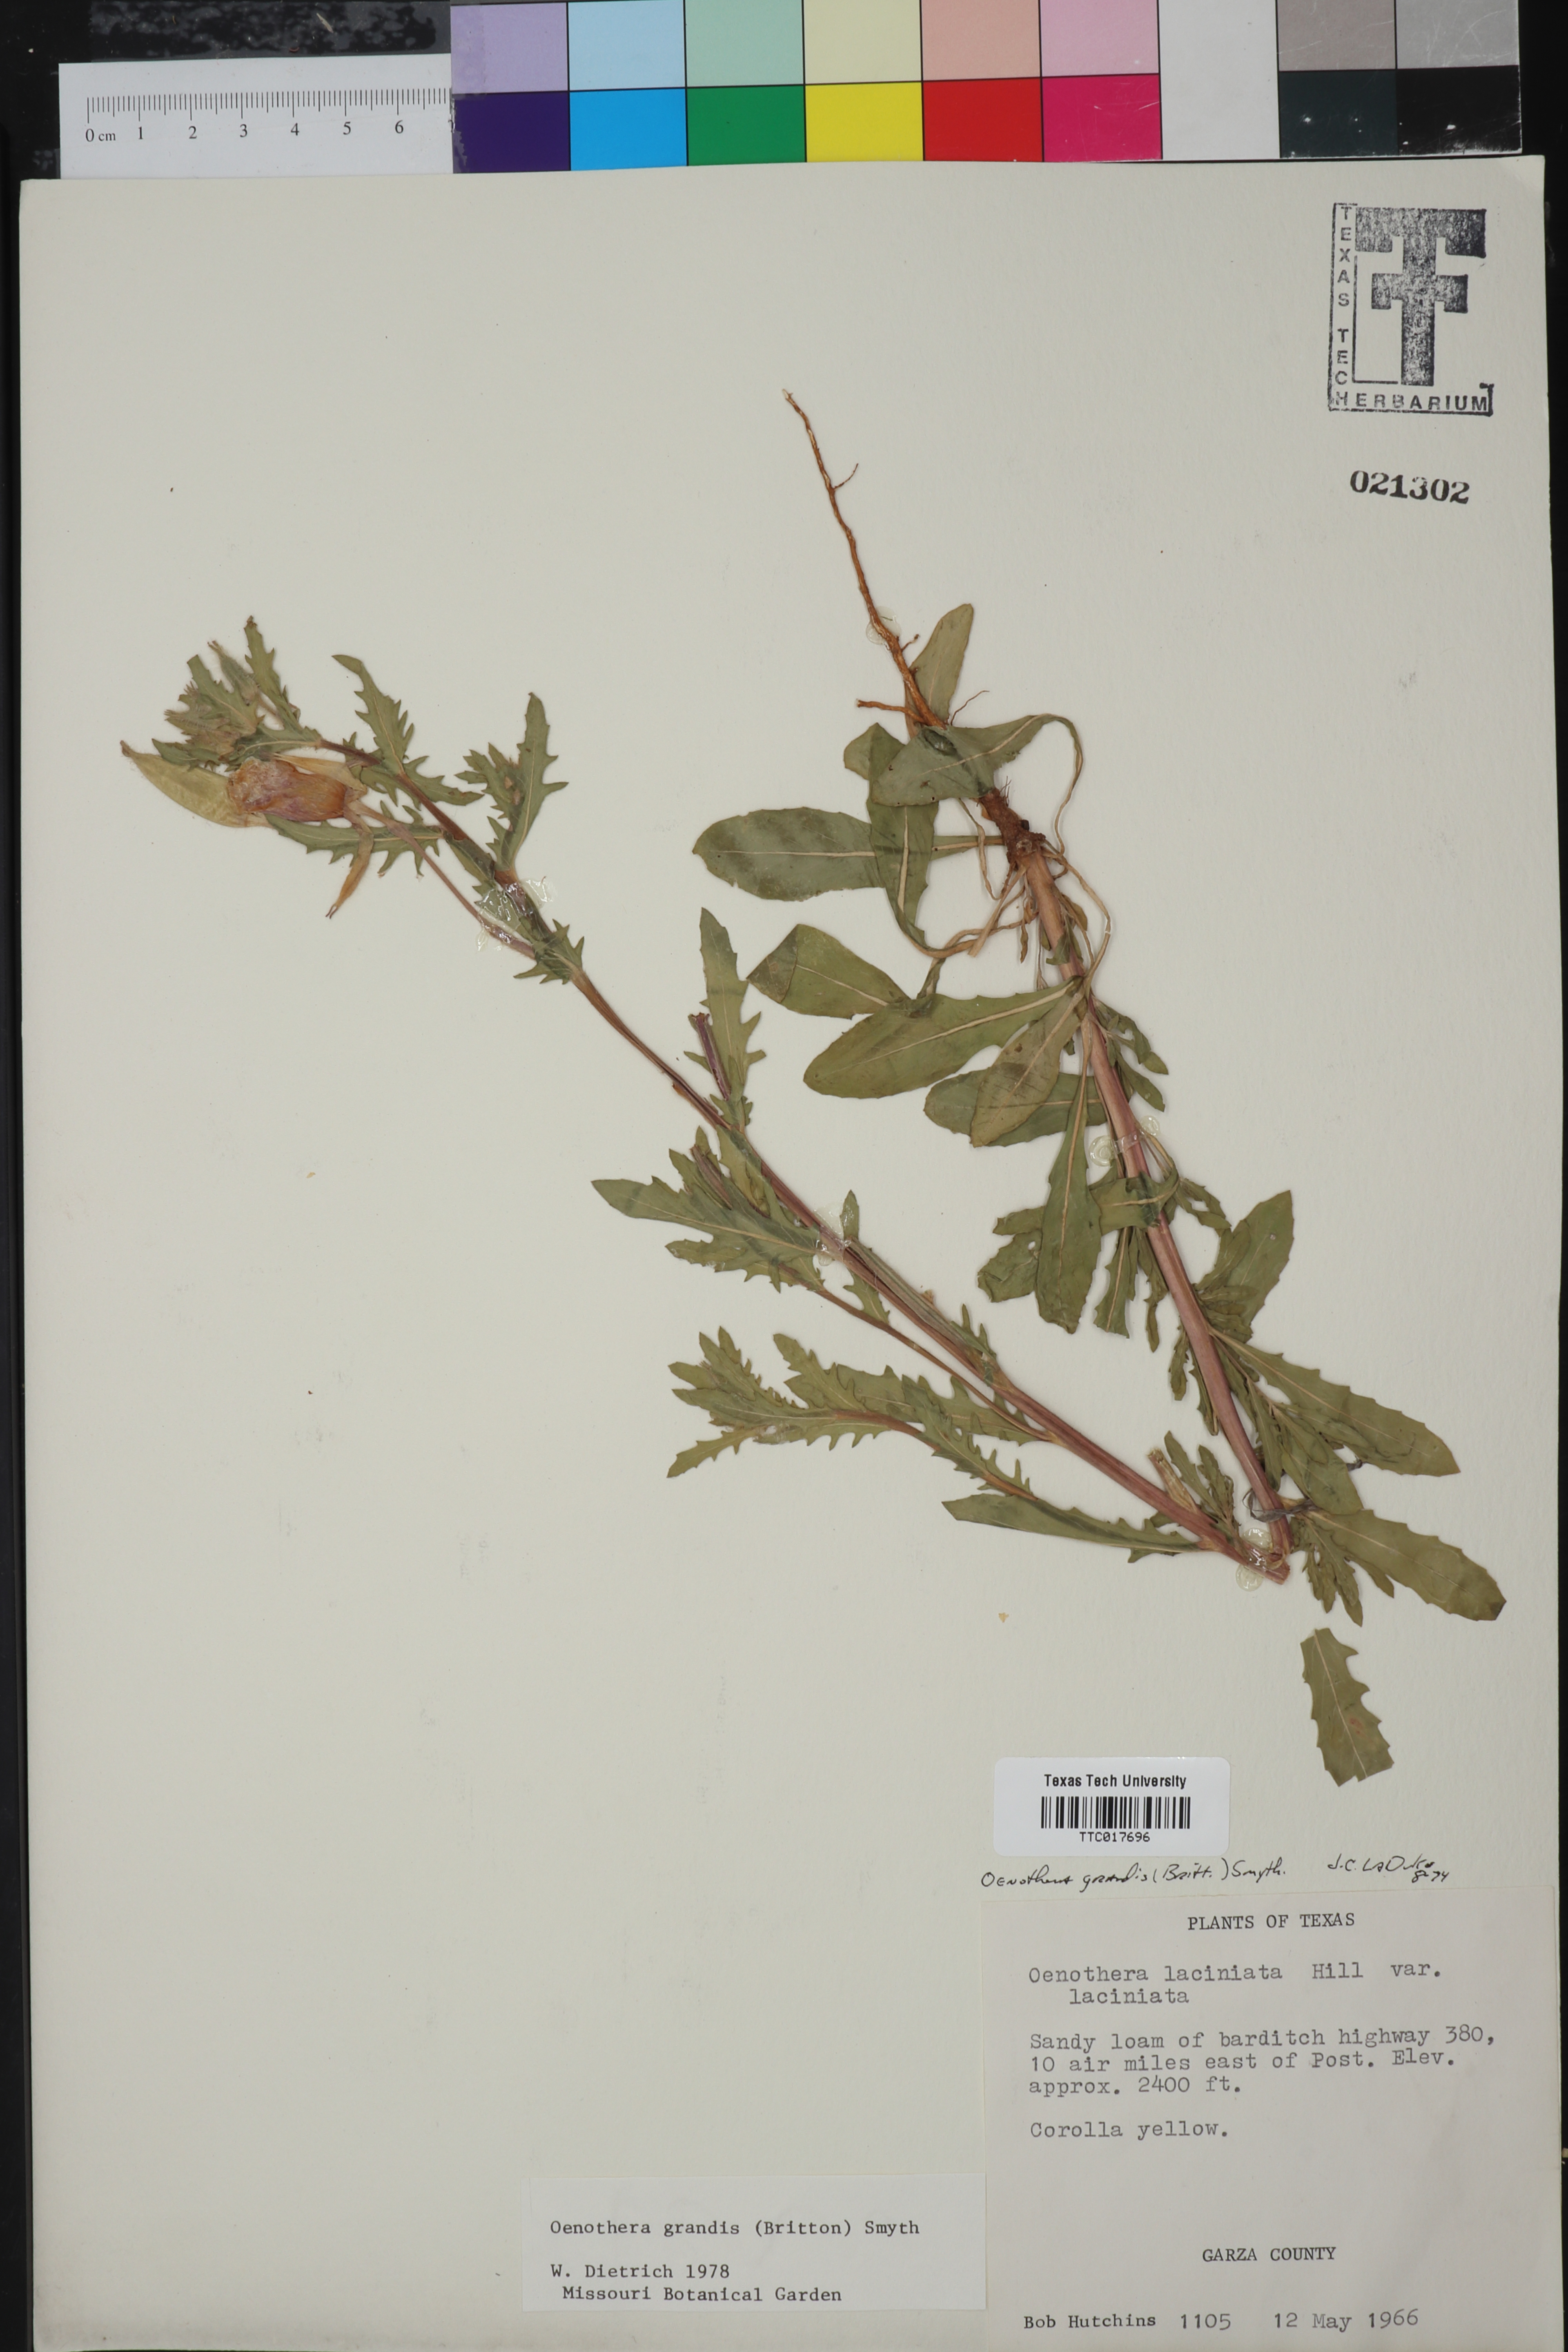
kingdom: Plantae
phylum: Tracheophyta
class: Magnoliopsida
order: Myrtales
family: Onagraceae
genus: Oenothera
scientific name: Oenothera grandis
